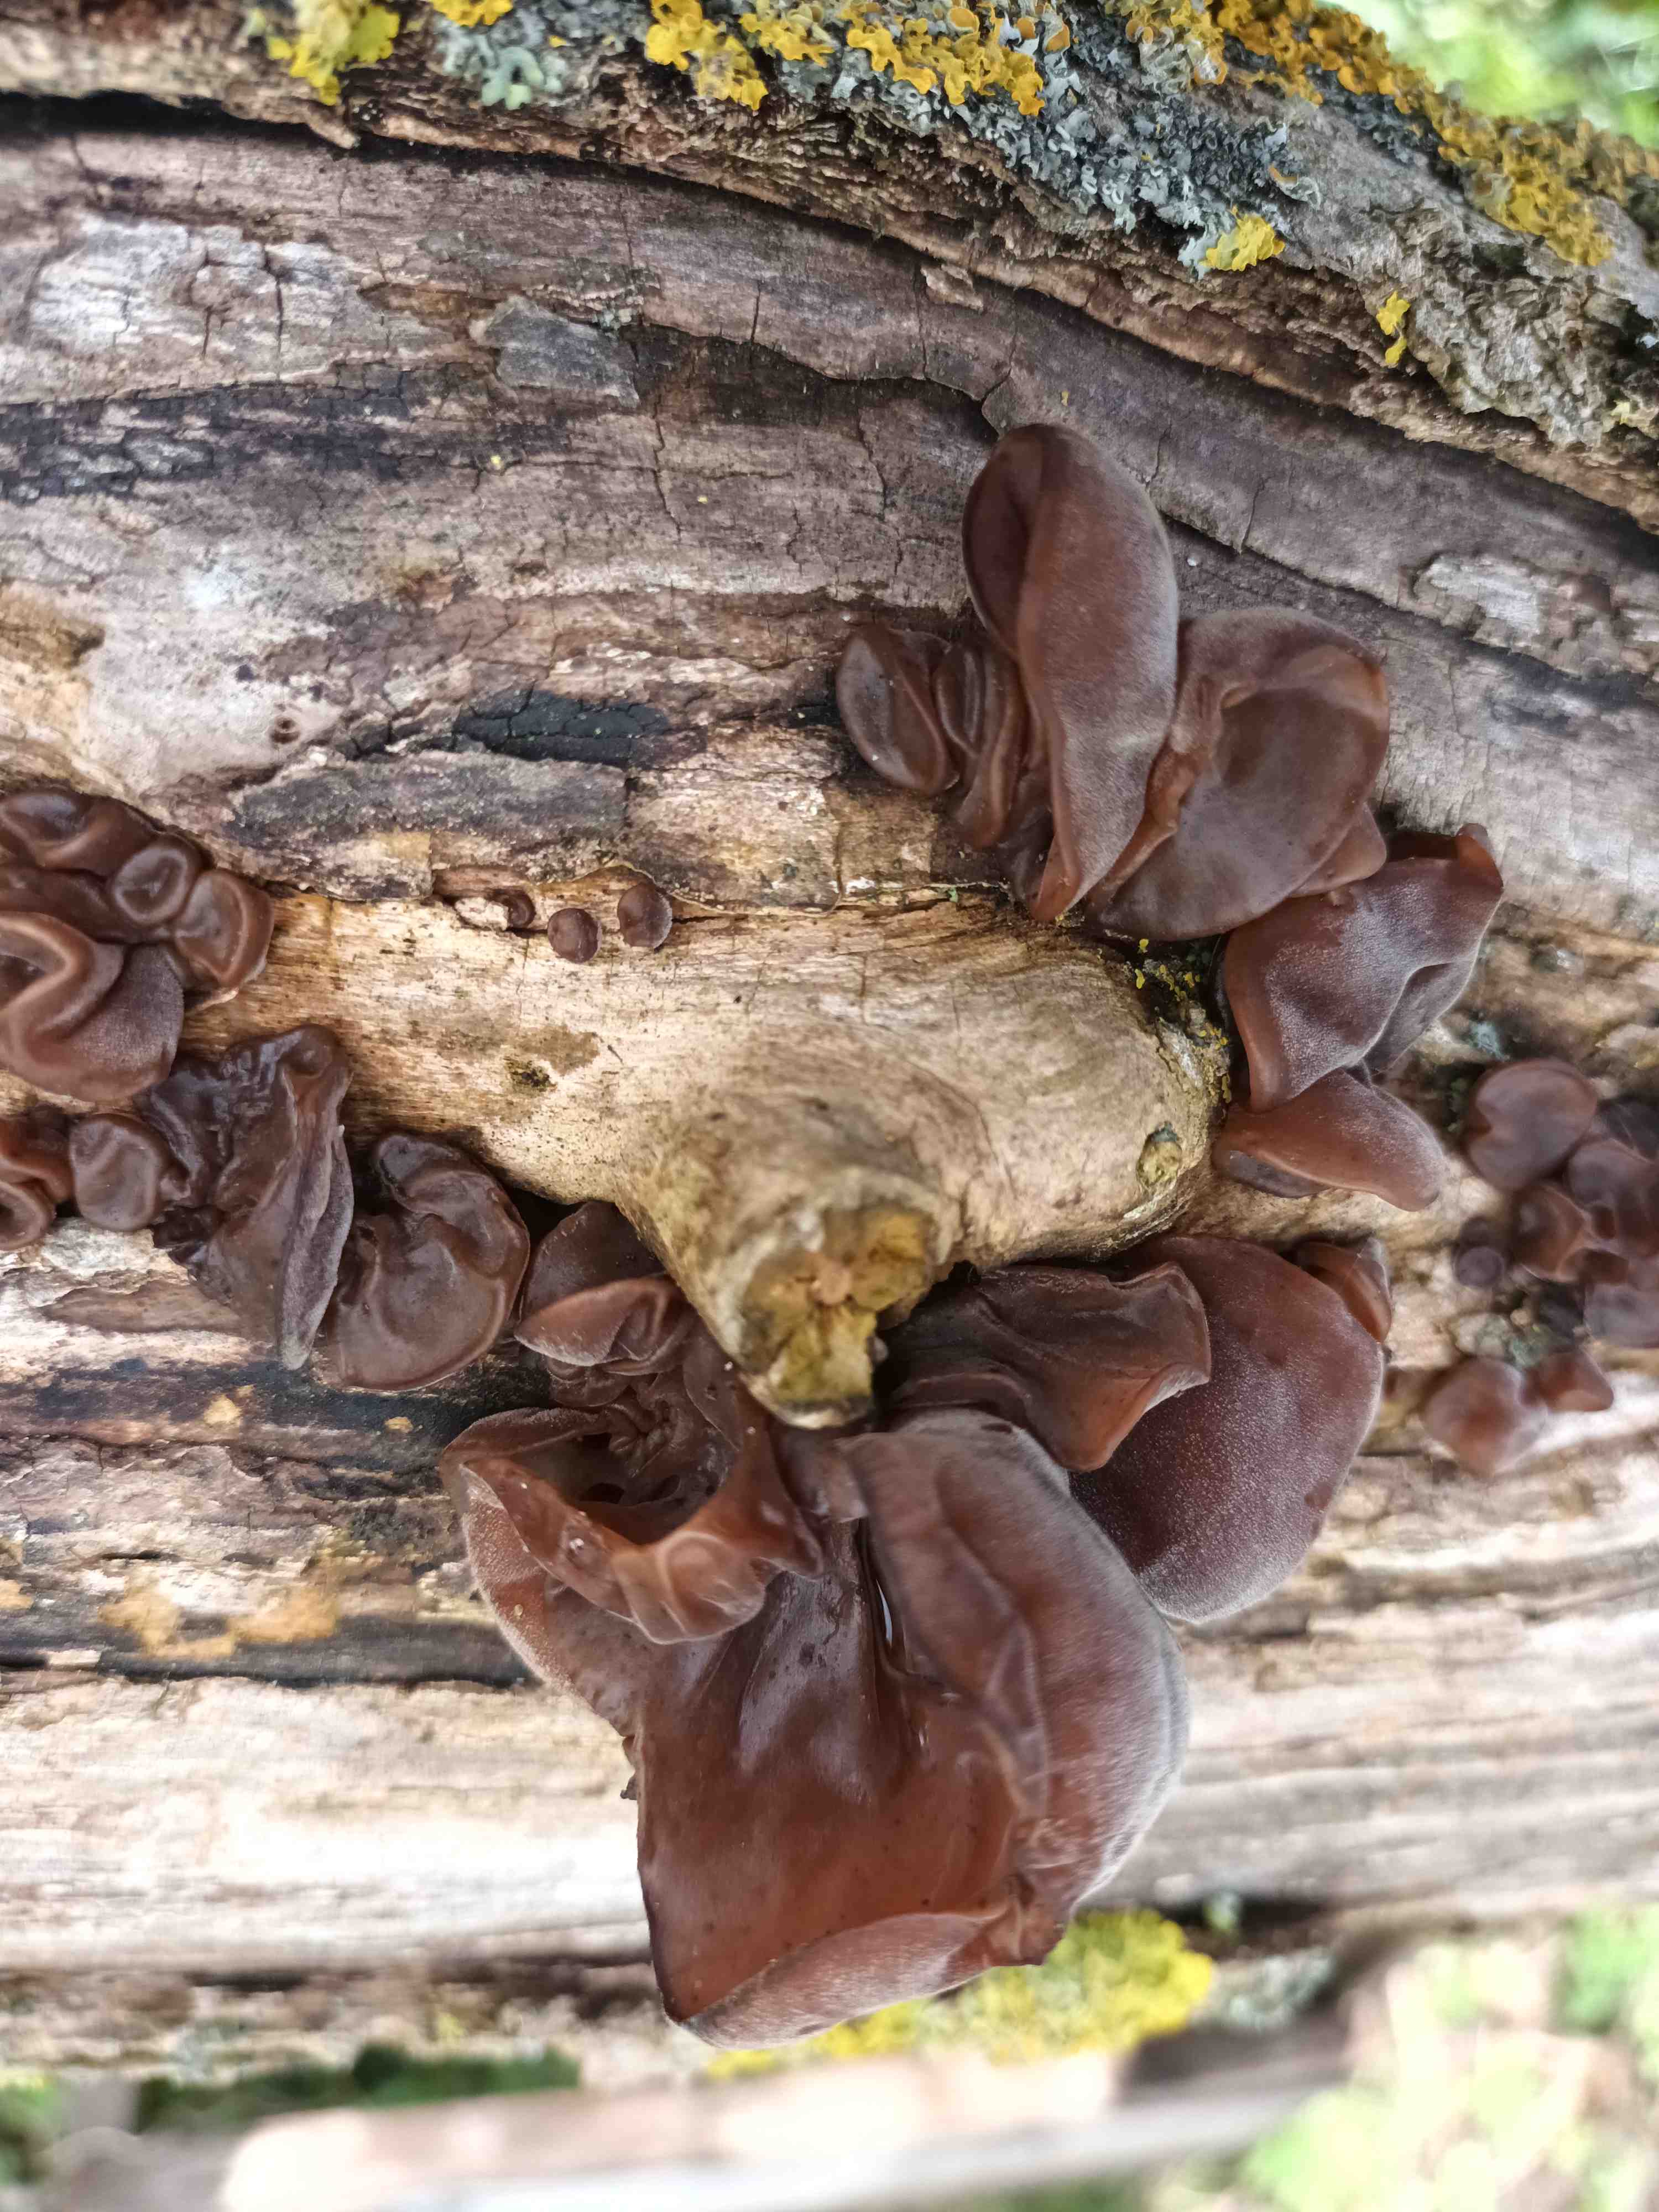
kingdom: Fungi
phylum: Basidiomycota
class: Agaricomycetes
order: Auriculariales
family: Auriculariaceae
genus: Auricularia
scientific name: Auricularia auricula-judae
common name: almindelig judasøre
